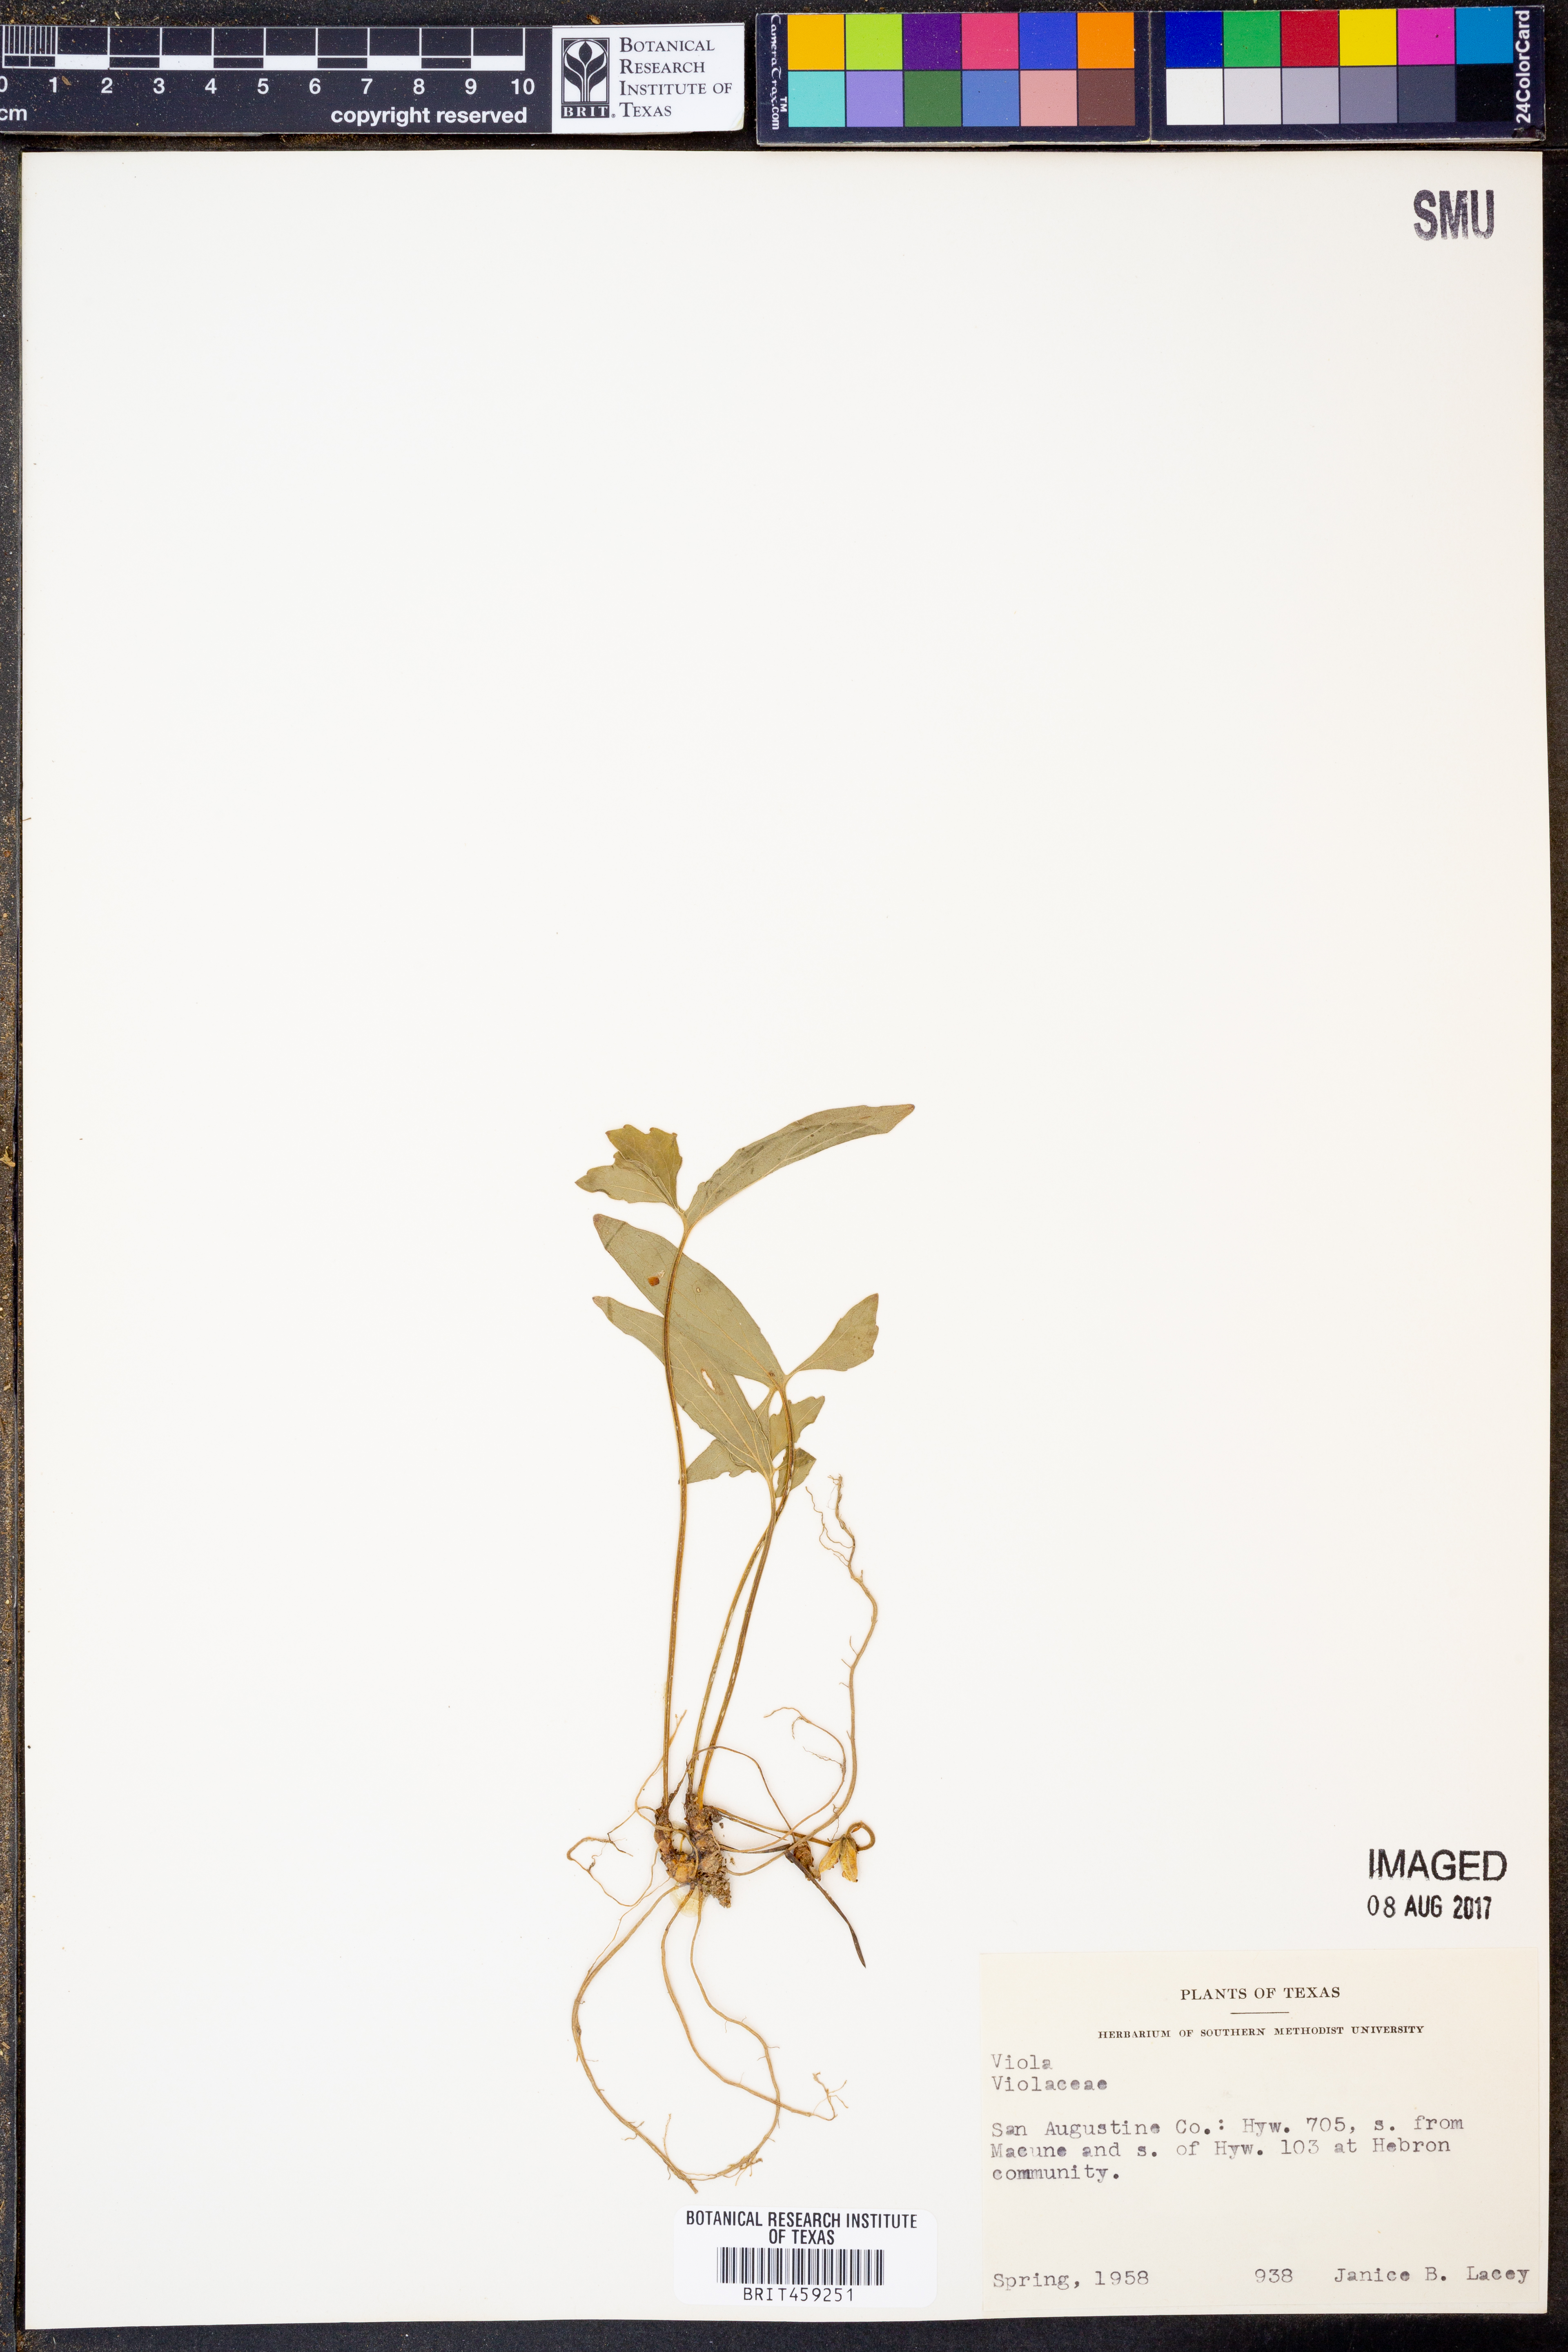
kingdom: Plantae
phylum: Tracheophyta
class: Magnoliopsida
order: Malpighiales
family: Violaceae
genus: Viola
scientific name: Viola
